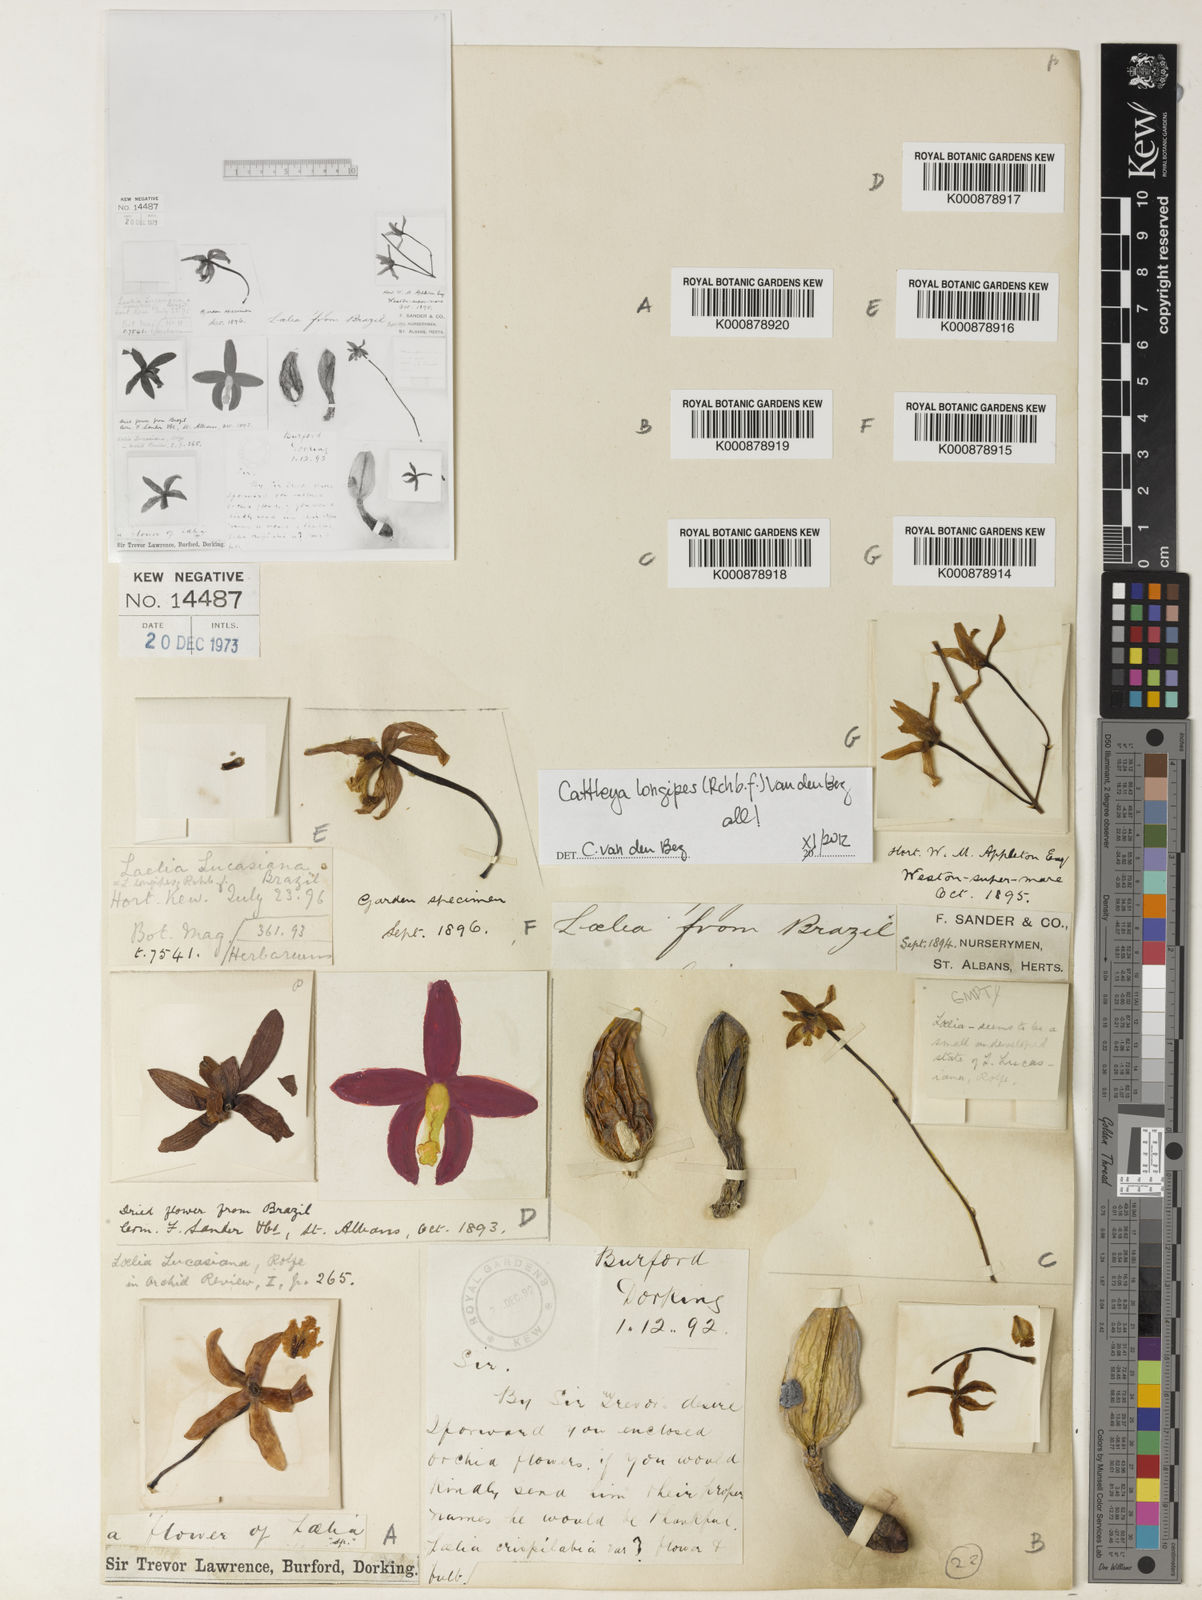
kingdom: Plantae
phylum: Tracheophyta
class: Liliopsida
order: Asparagales
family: Orchidaceae
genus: Cattleya
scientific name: Cattleya longipes
